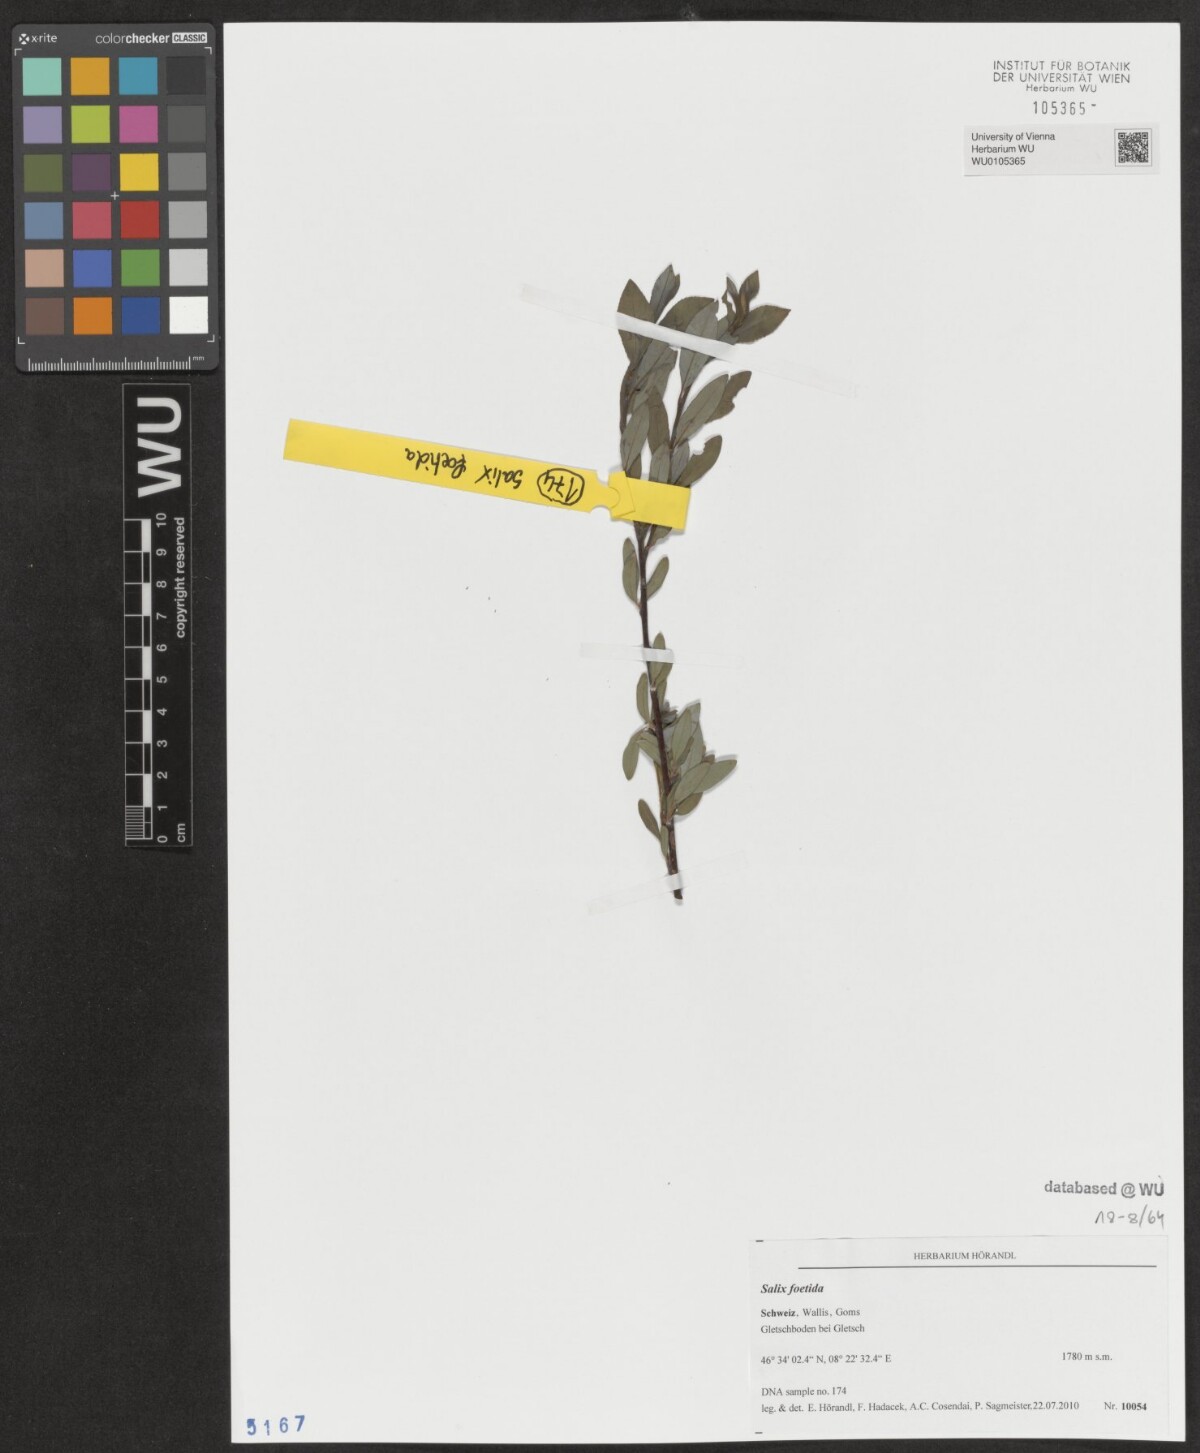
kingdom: Plantae
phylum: Tracheophyta
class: Magnoliopsida
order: Malpighiales
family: Salicaceae
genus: Salix
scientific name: Salix foetida
